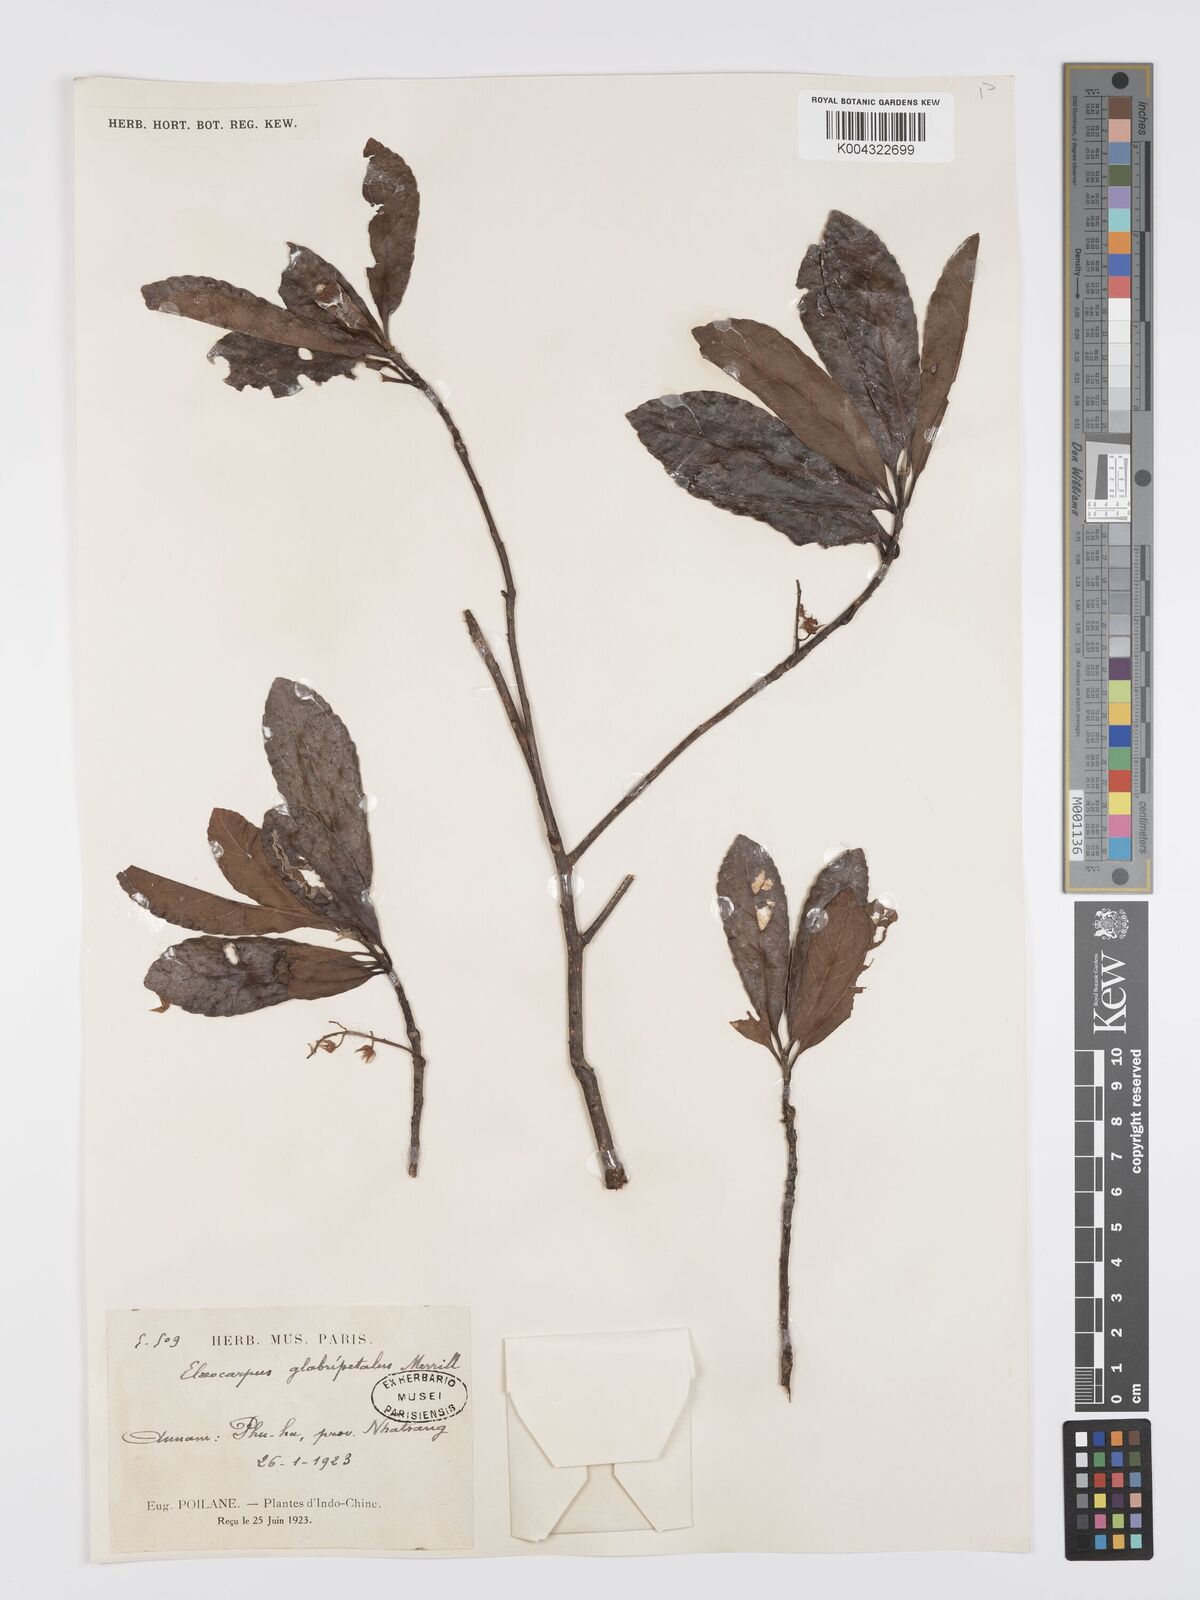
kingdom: Plantae
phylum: Tracheophyta
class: Magnoliopsida
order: Oxalidales
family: Elaeocarpaceae
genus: Elaeocarpus
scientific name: Elaeocarpus glabripetalus
